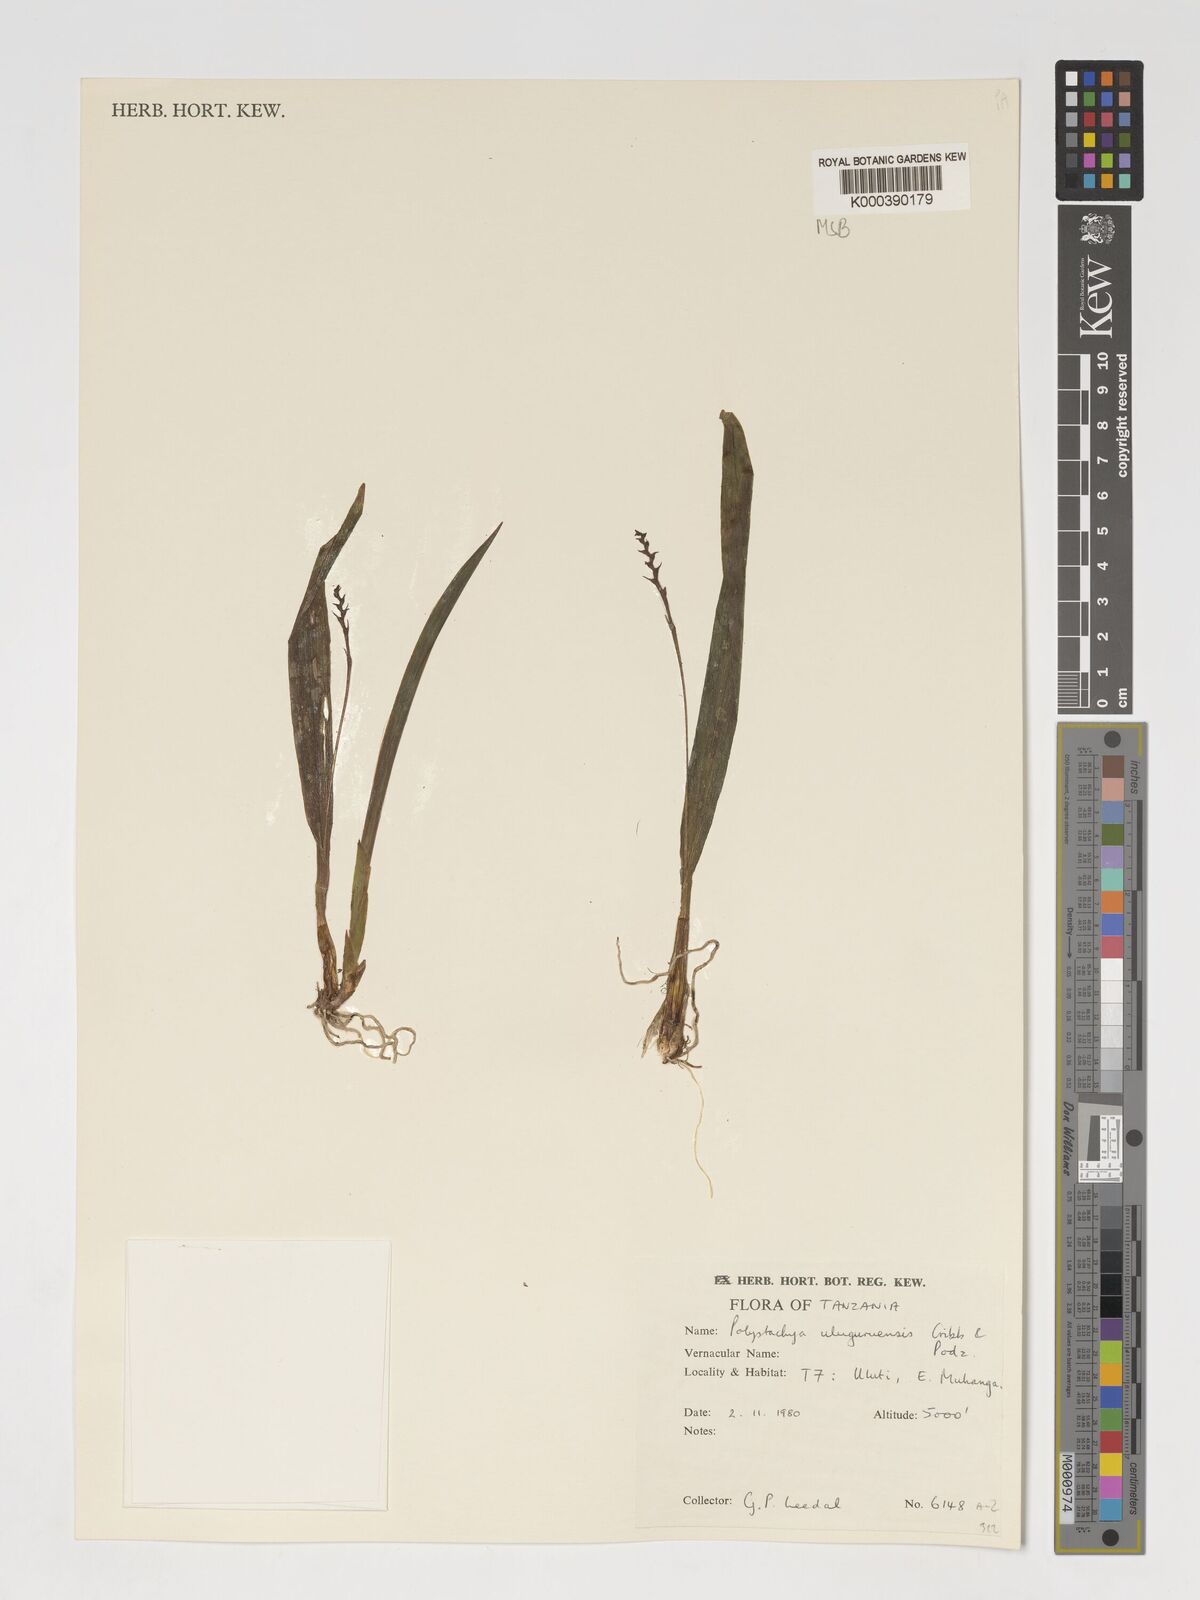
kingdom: Plantae
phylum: Tracheophyta
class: Liliopsida
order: Asparagales
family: Orchidaceae
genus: Polystachya
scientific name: Polystachya uluguruensis
